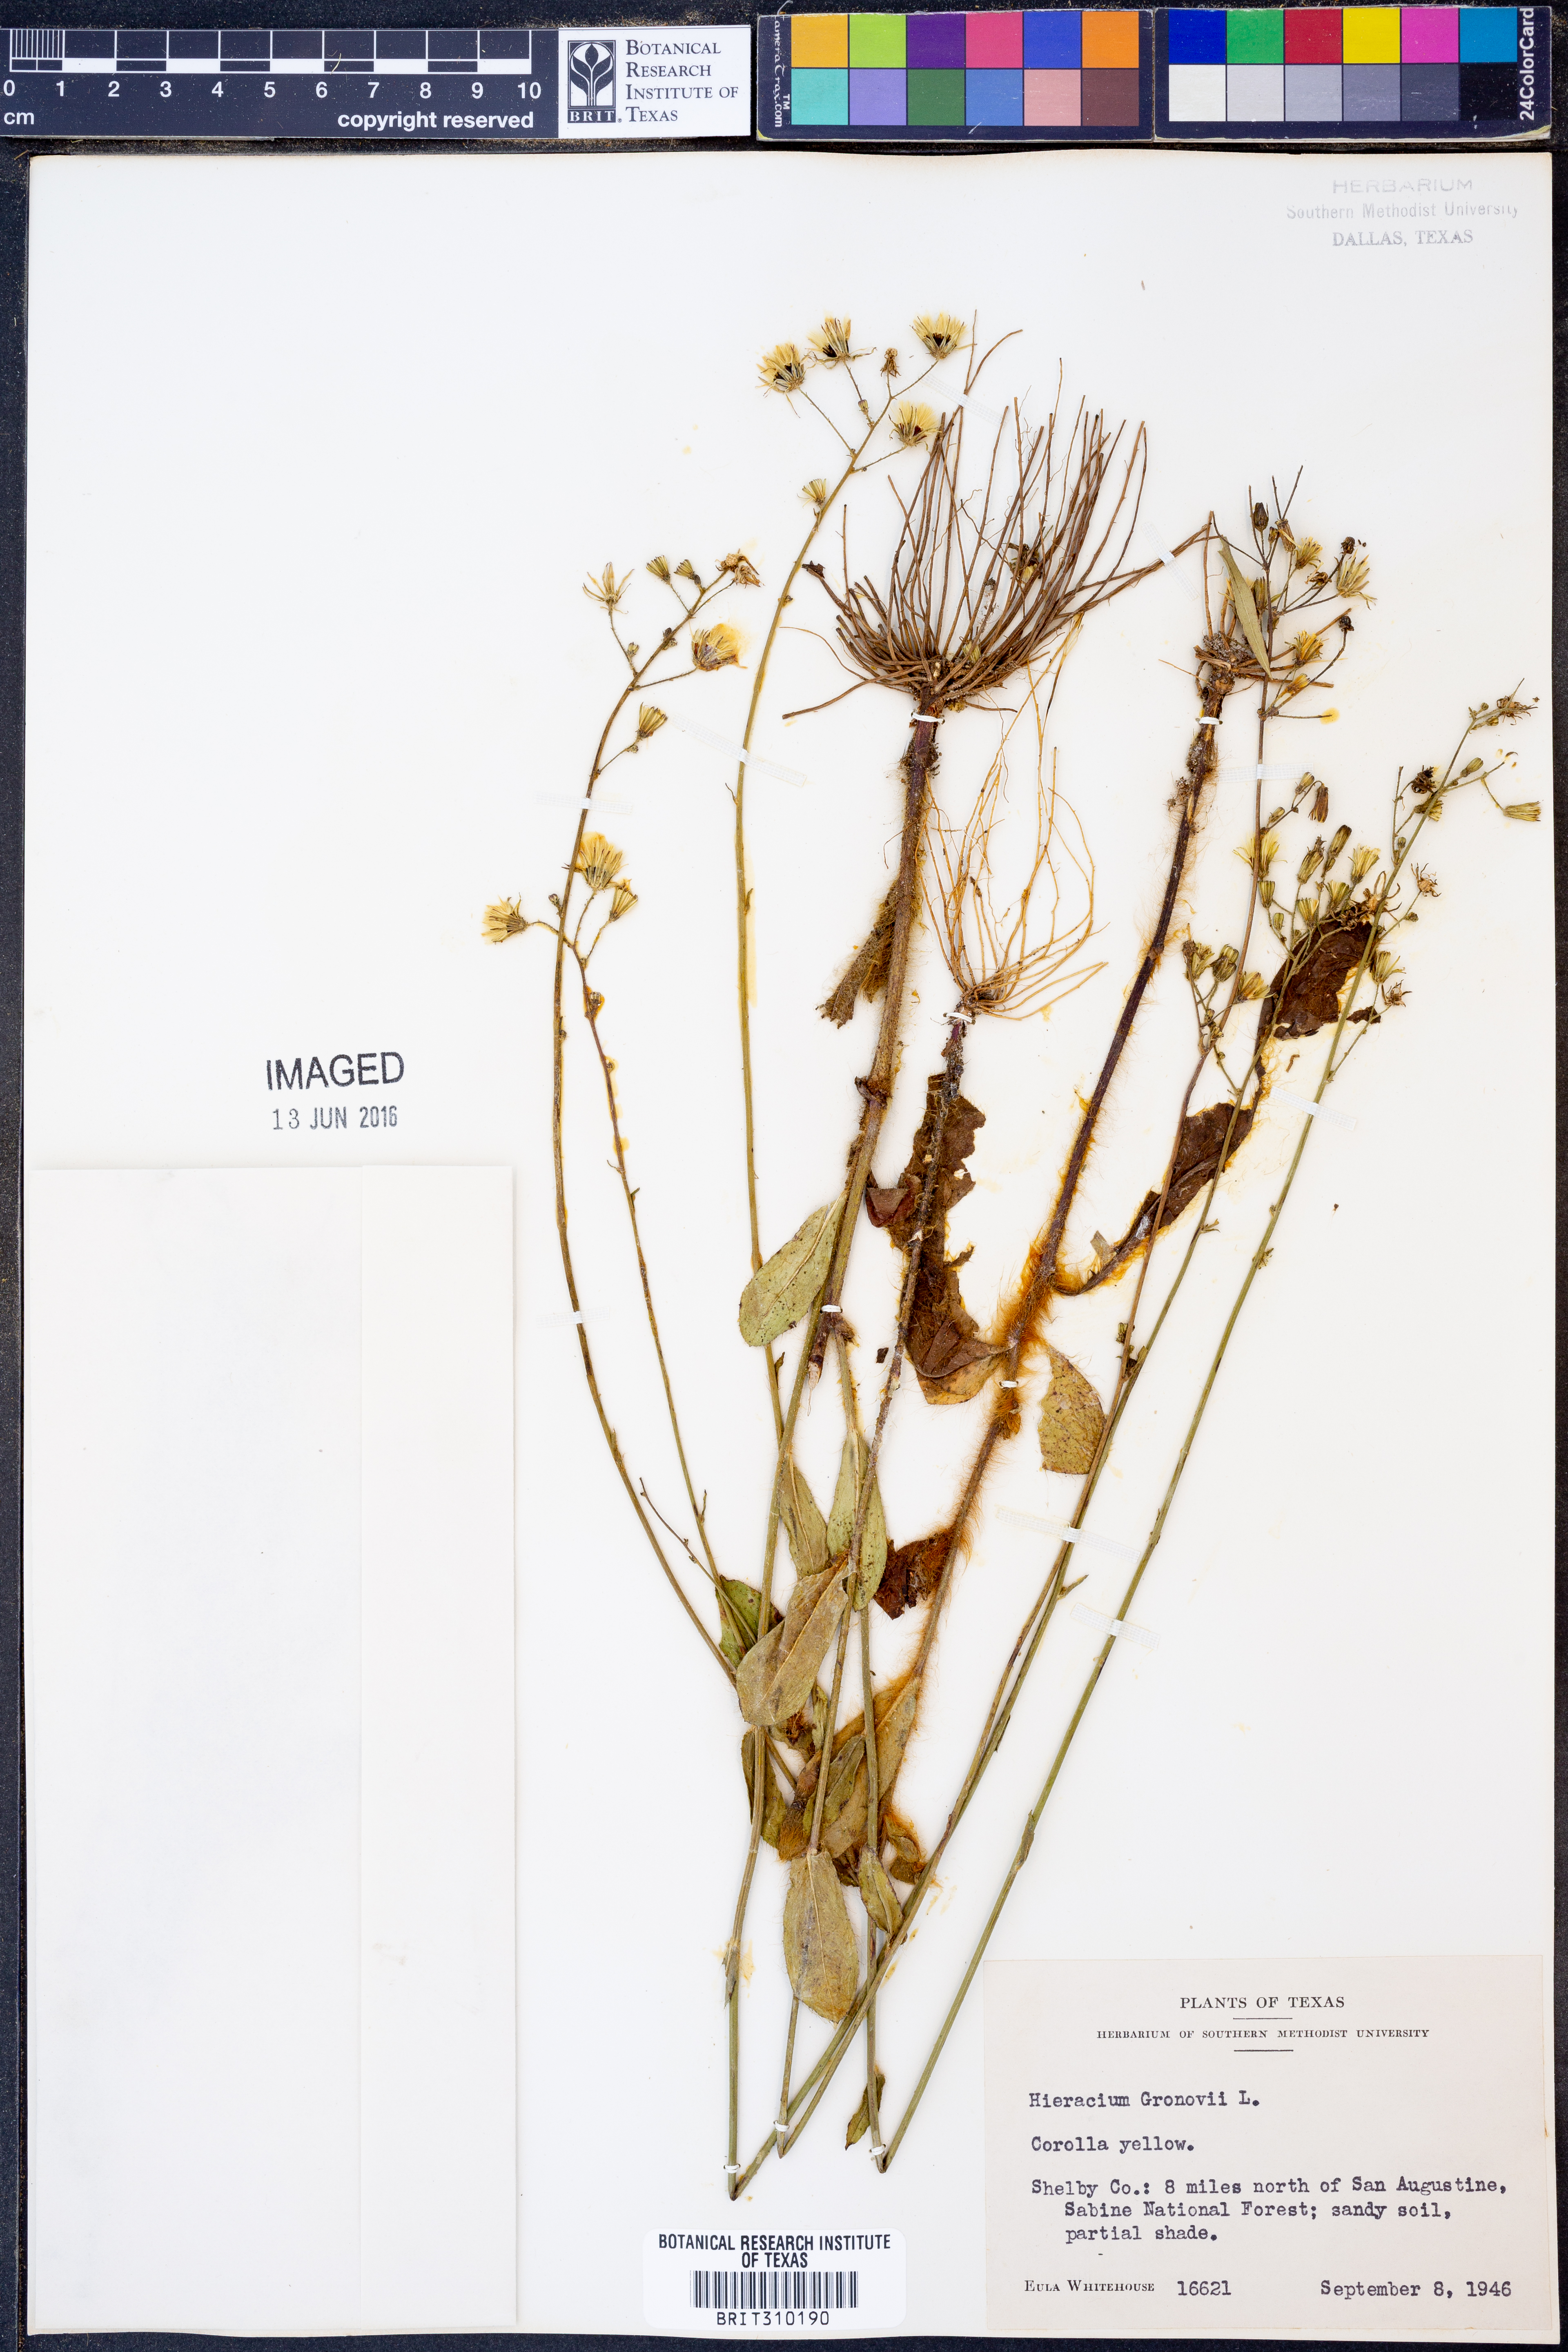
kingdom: Plantae
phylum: Tracheophyta
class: Magnoliopsida
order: Asterales
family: Asteraceae
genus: Hieracium
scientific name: Hieracium gronovii
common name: Beaked hawkweed
